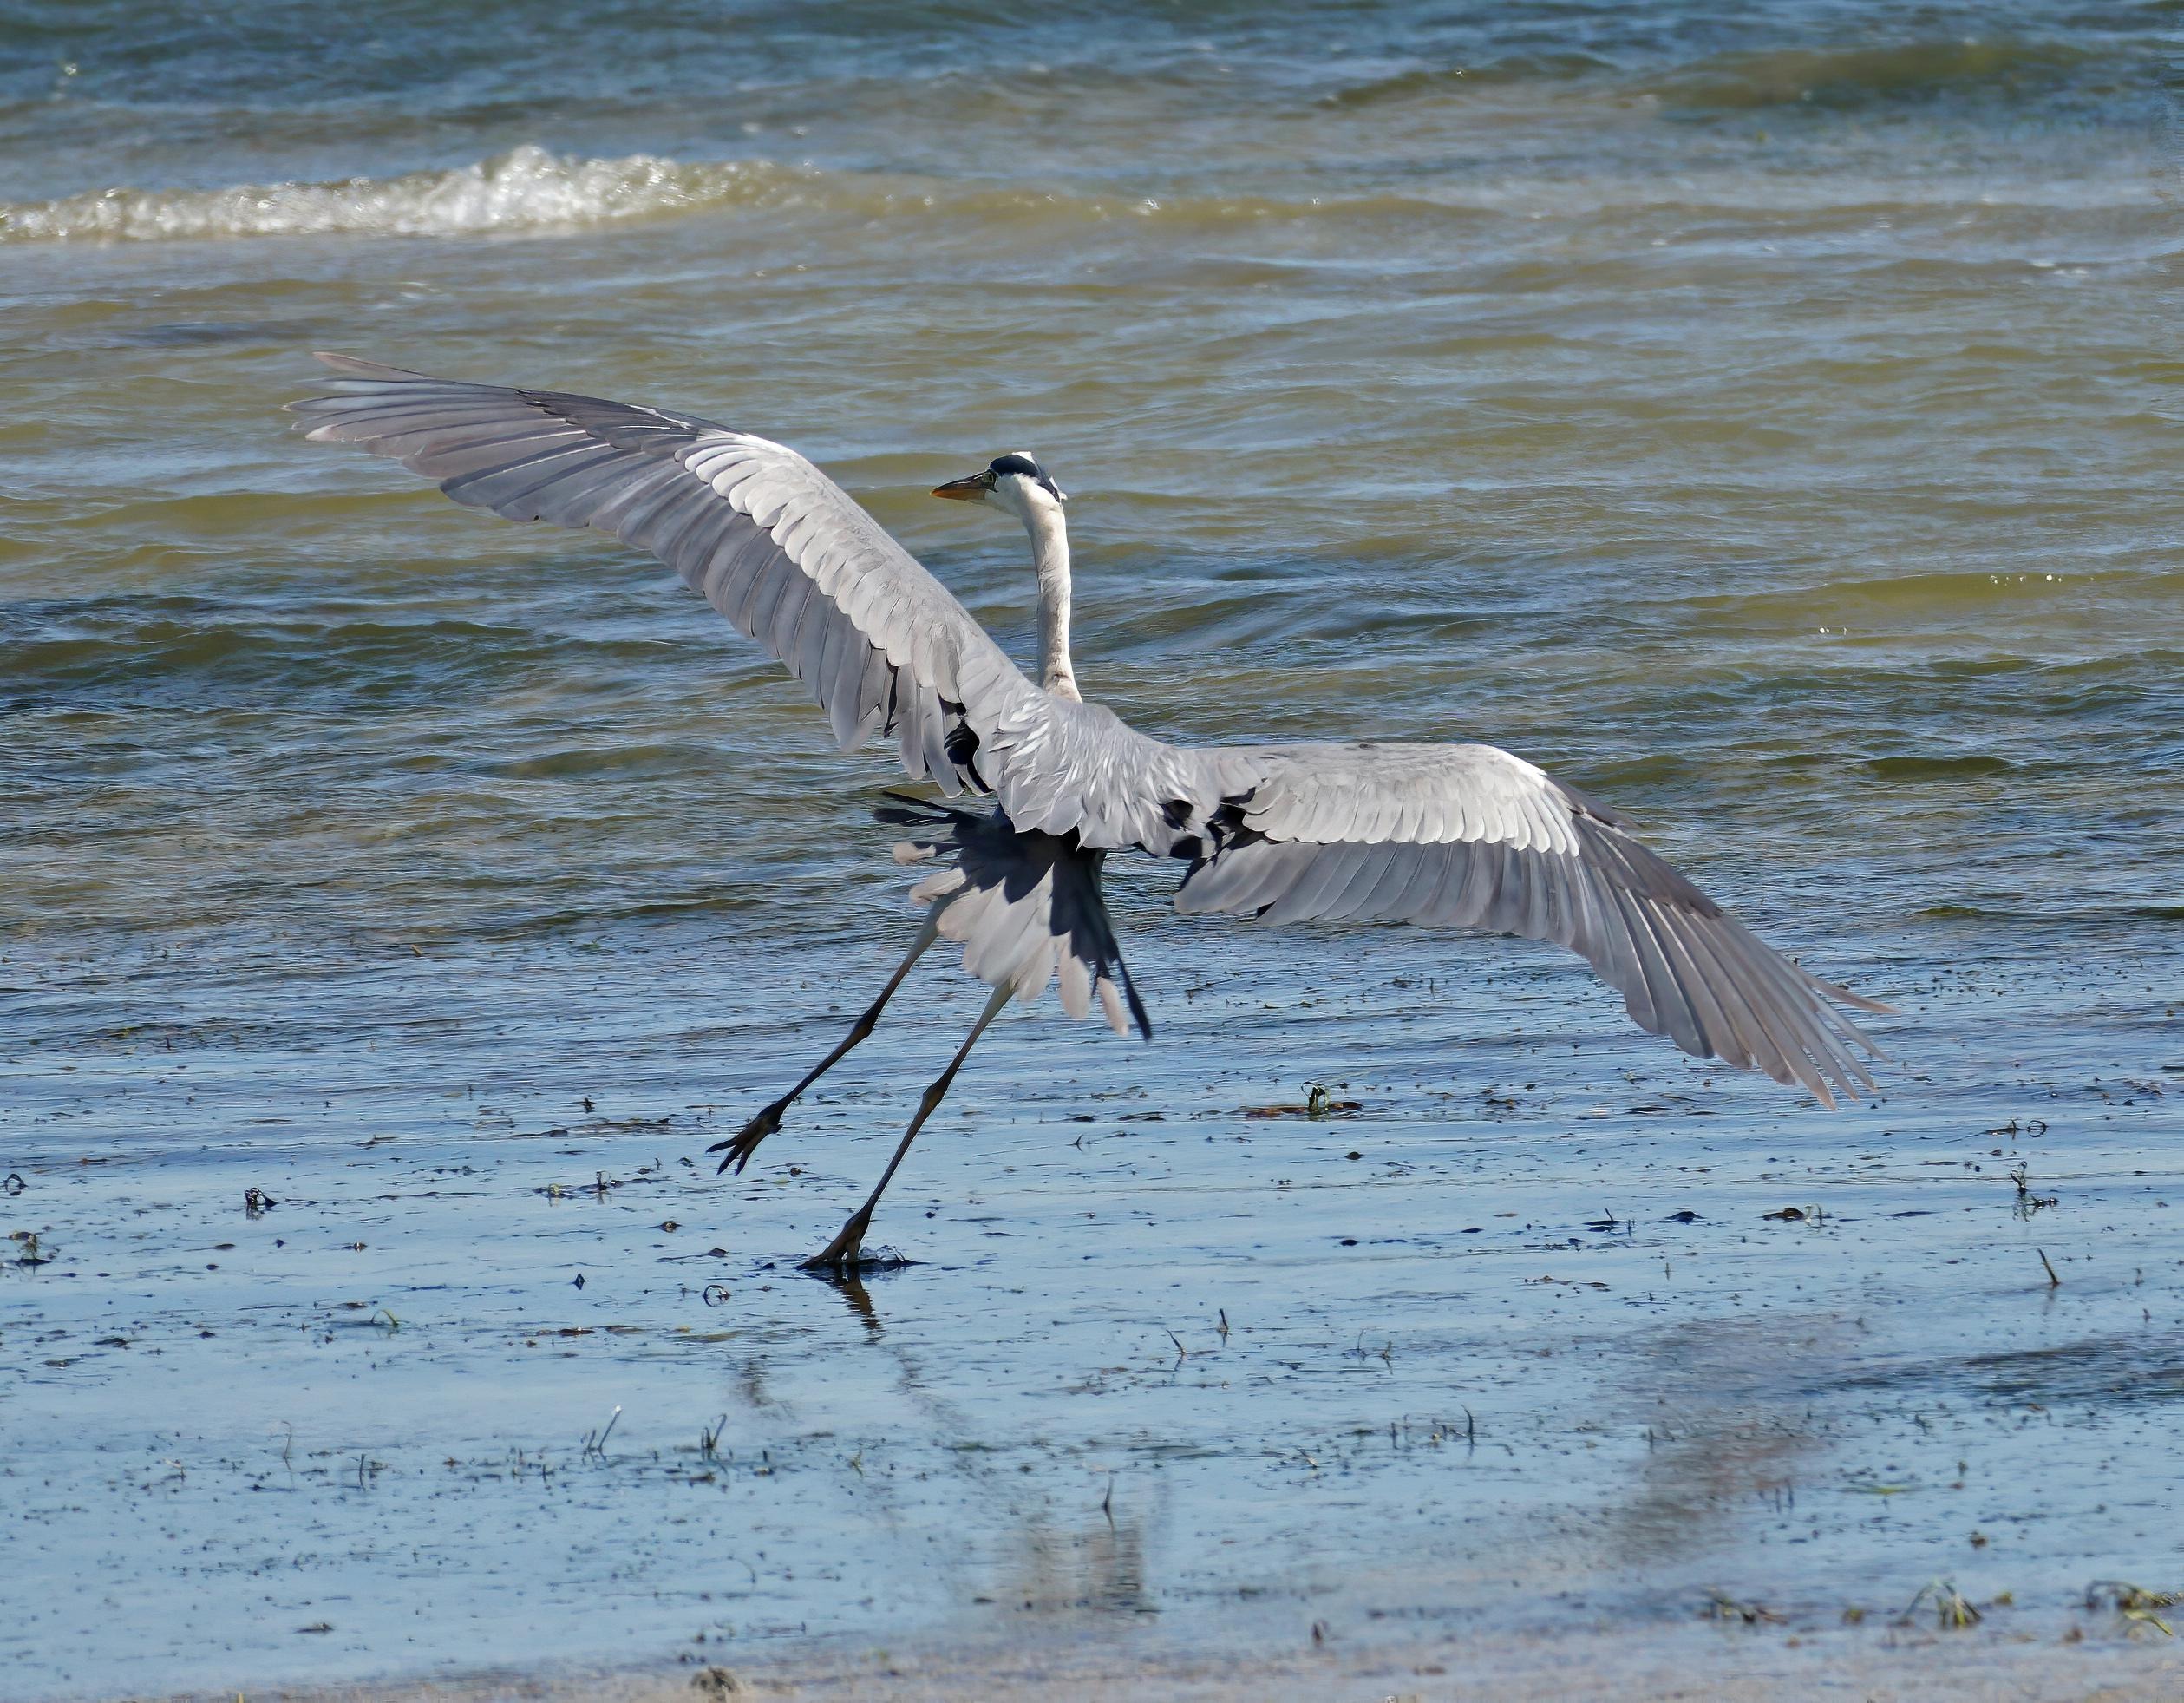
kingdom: Animalia
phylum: Chordata
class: Aves
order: Pelecaniformes
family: Ardeidae
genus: Ardea
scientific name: Ardea cinerea
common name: Fiskehejre
